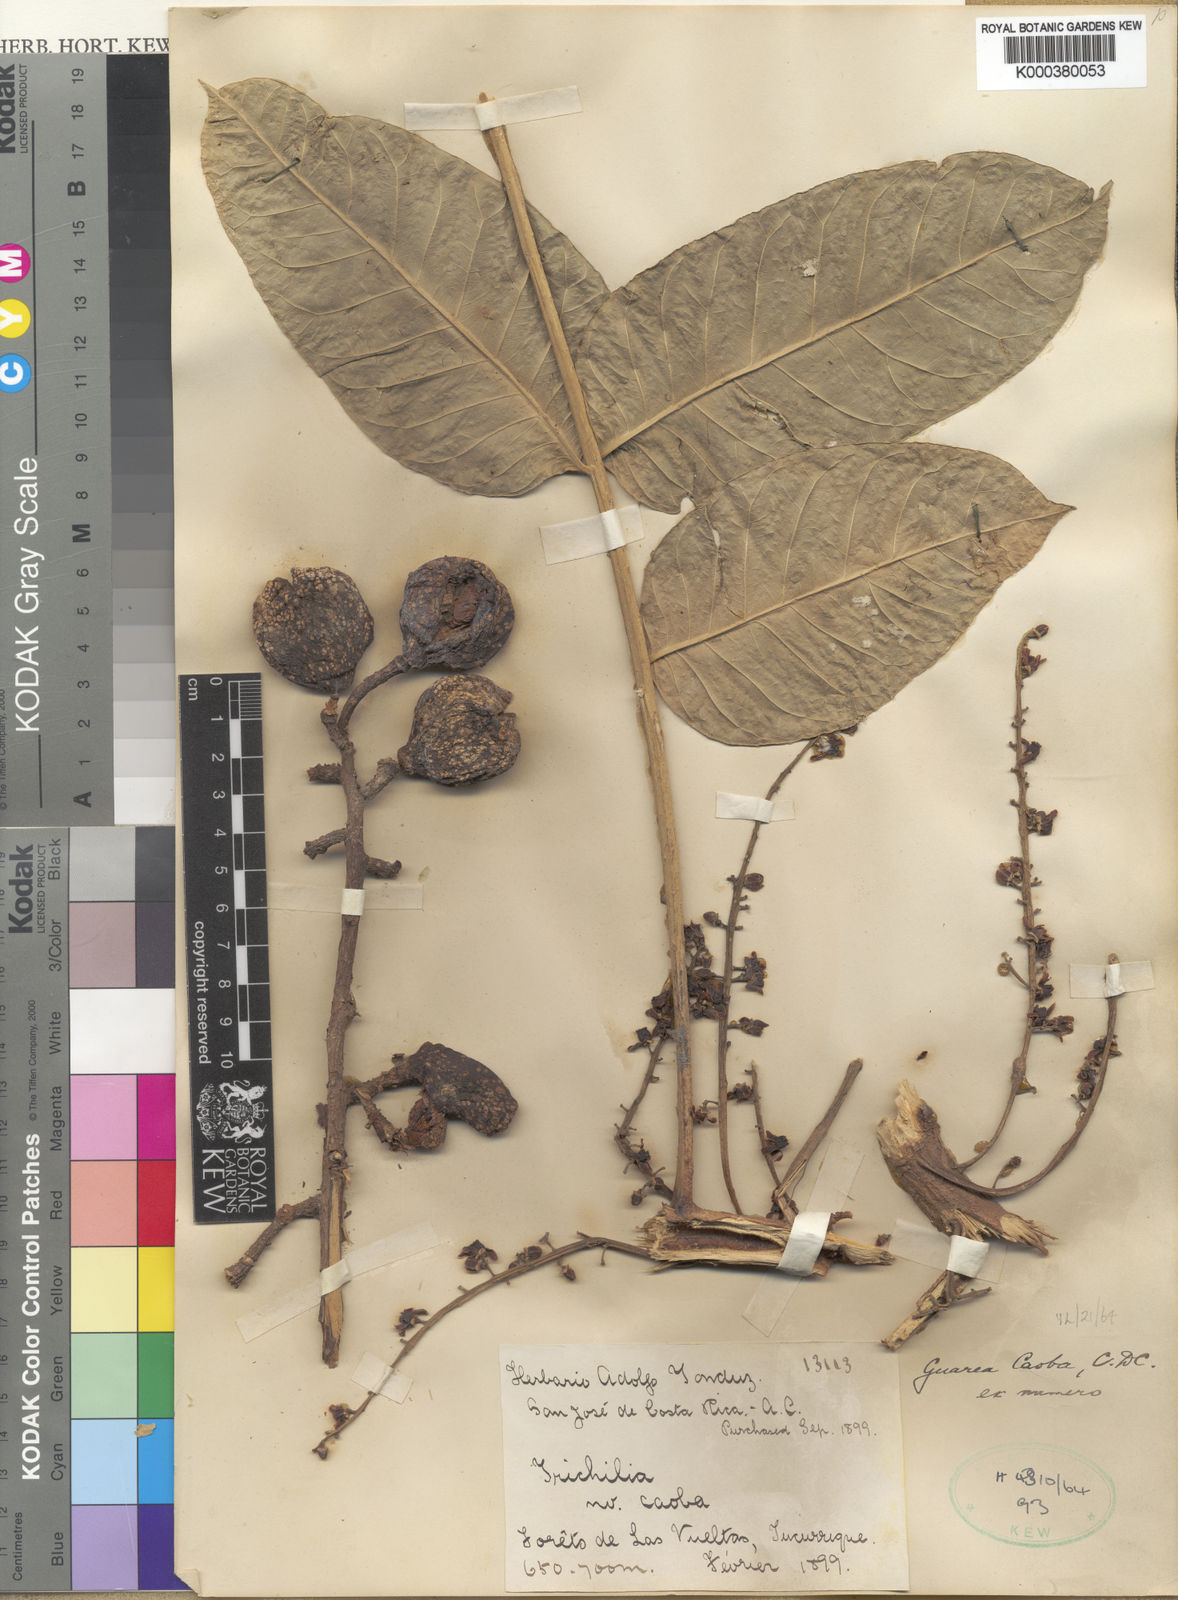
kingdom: Plantae
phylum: Tracheophyta
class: Magnoliopsida
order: Sapindales
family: Meliaceae
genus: Ruagea
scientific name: Ruagea insignis
